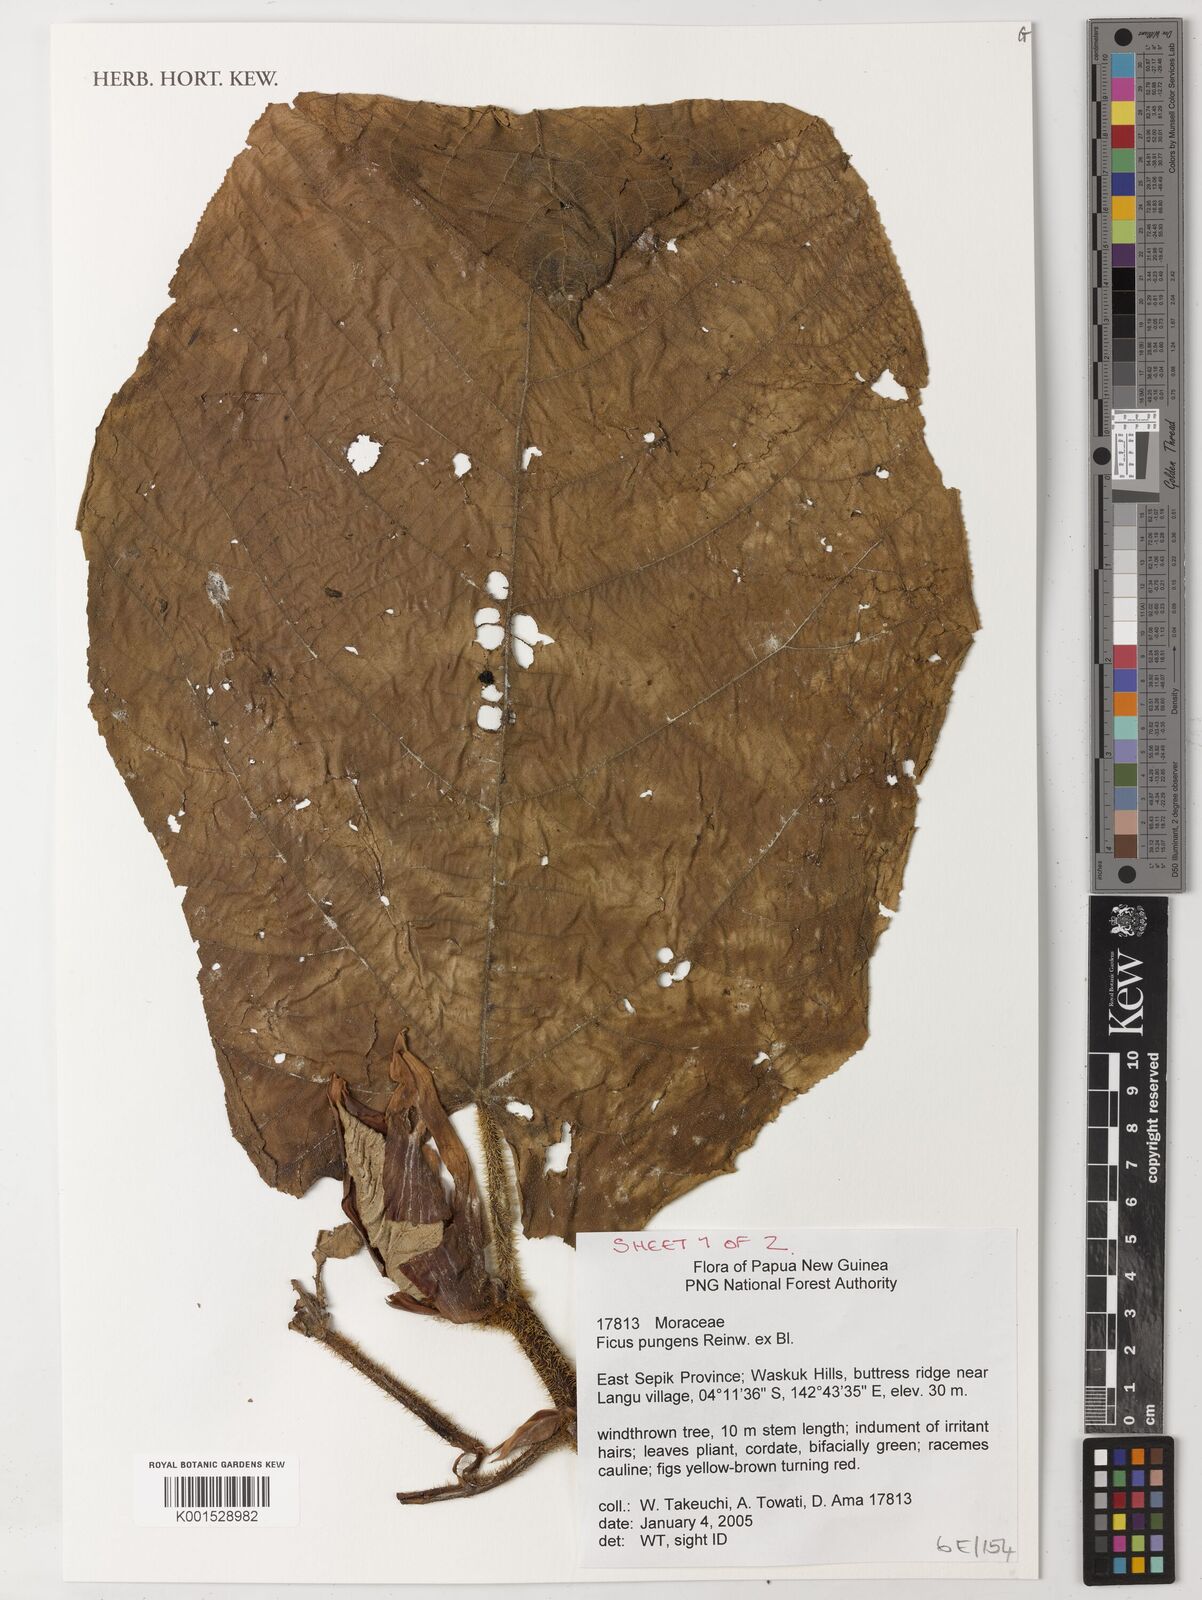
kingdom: Plantae
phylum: Tracheophyta
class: Magnoliopsida
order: Rosales
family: Moraceae
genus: Ficus
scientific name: Ficus pungens
